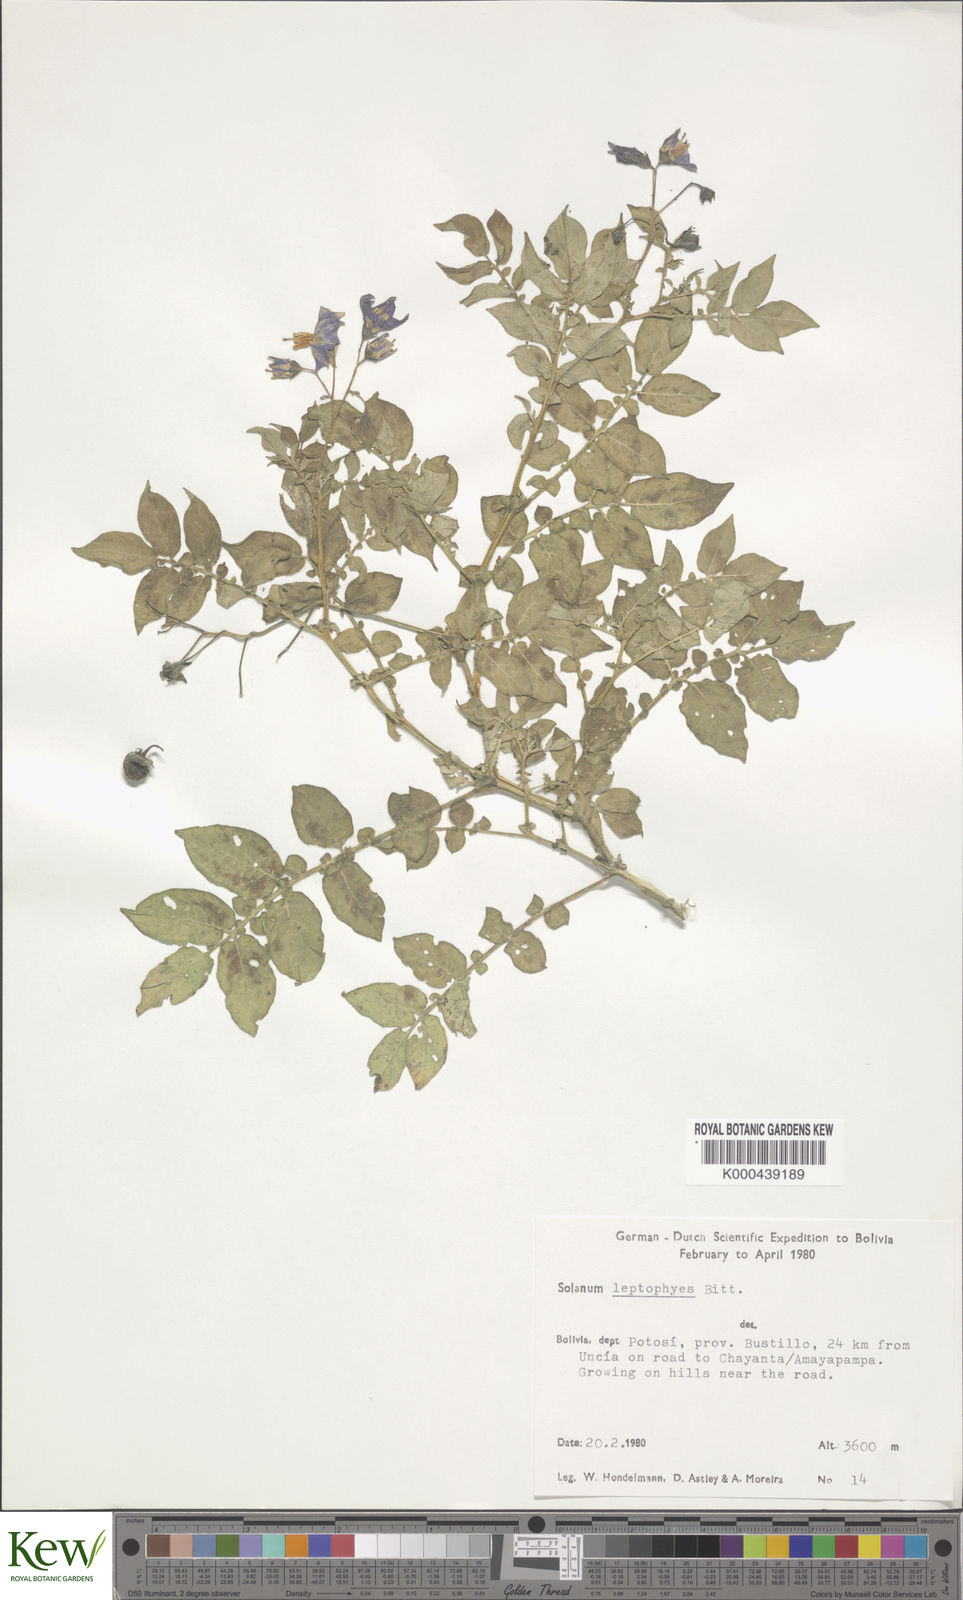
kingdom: Plantae
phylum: Tracheophyta
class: Magnoliopsida
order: Solanales
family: Solanaceae
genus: Solanum
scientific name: Solanum brevicaule
